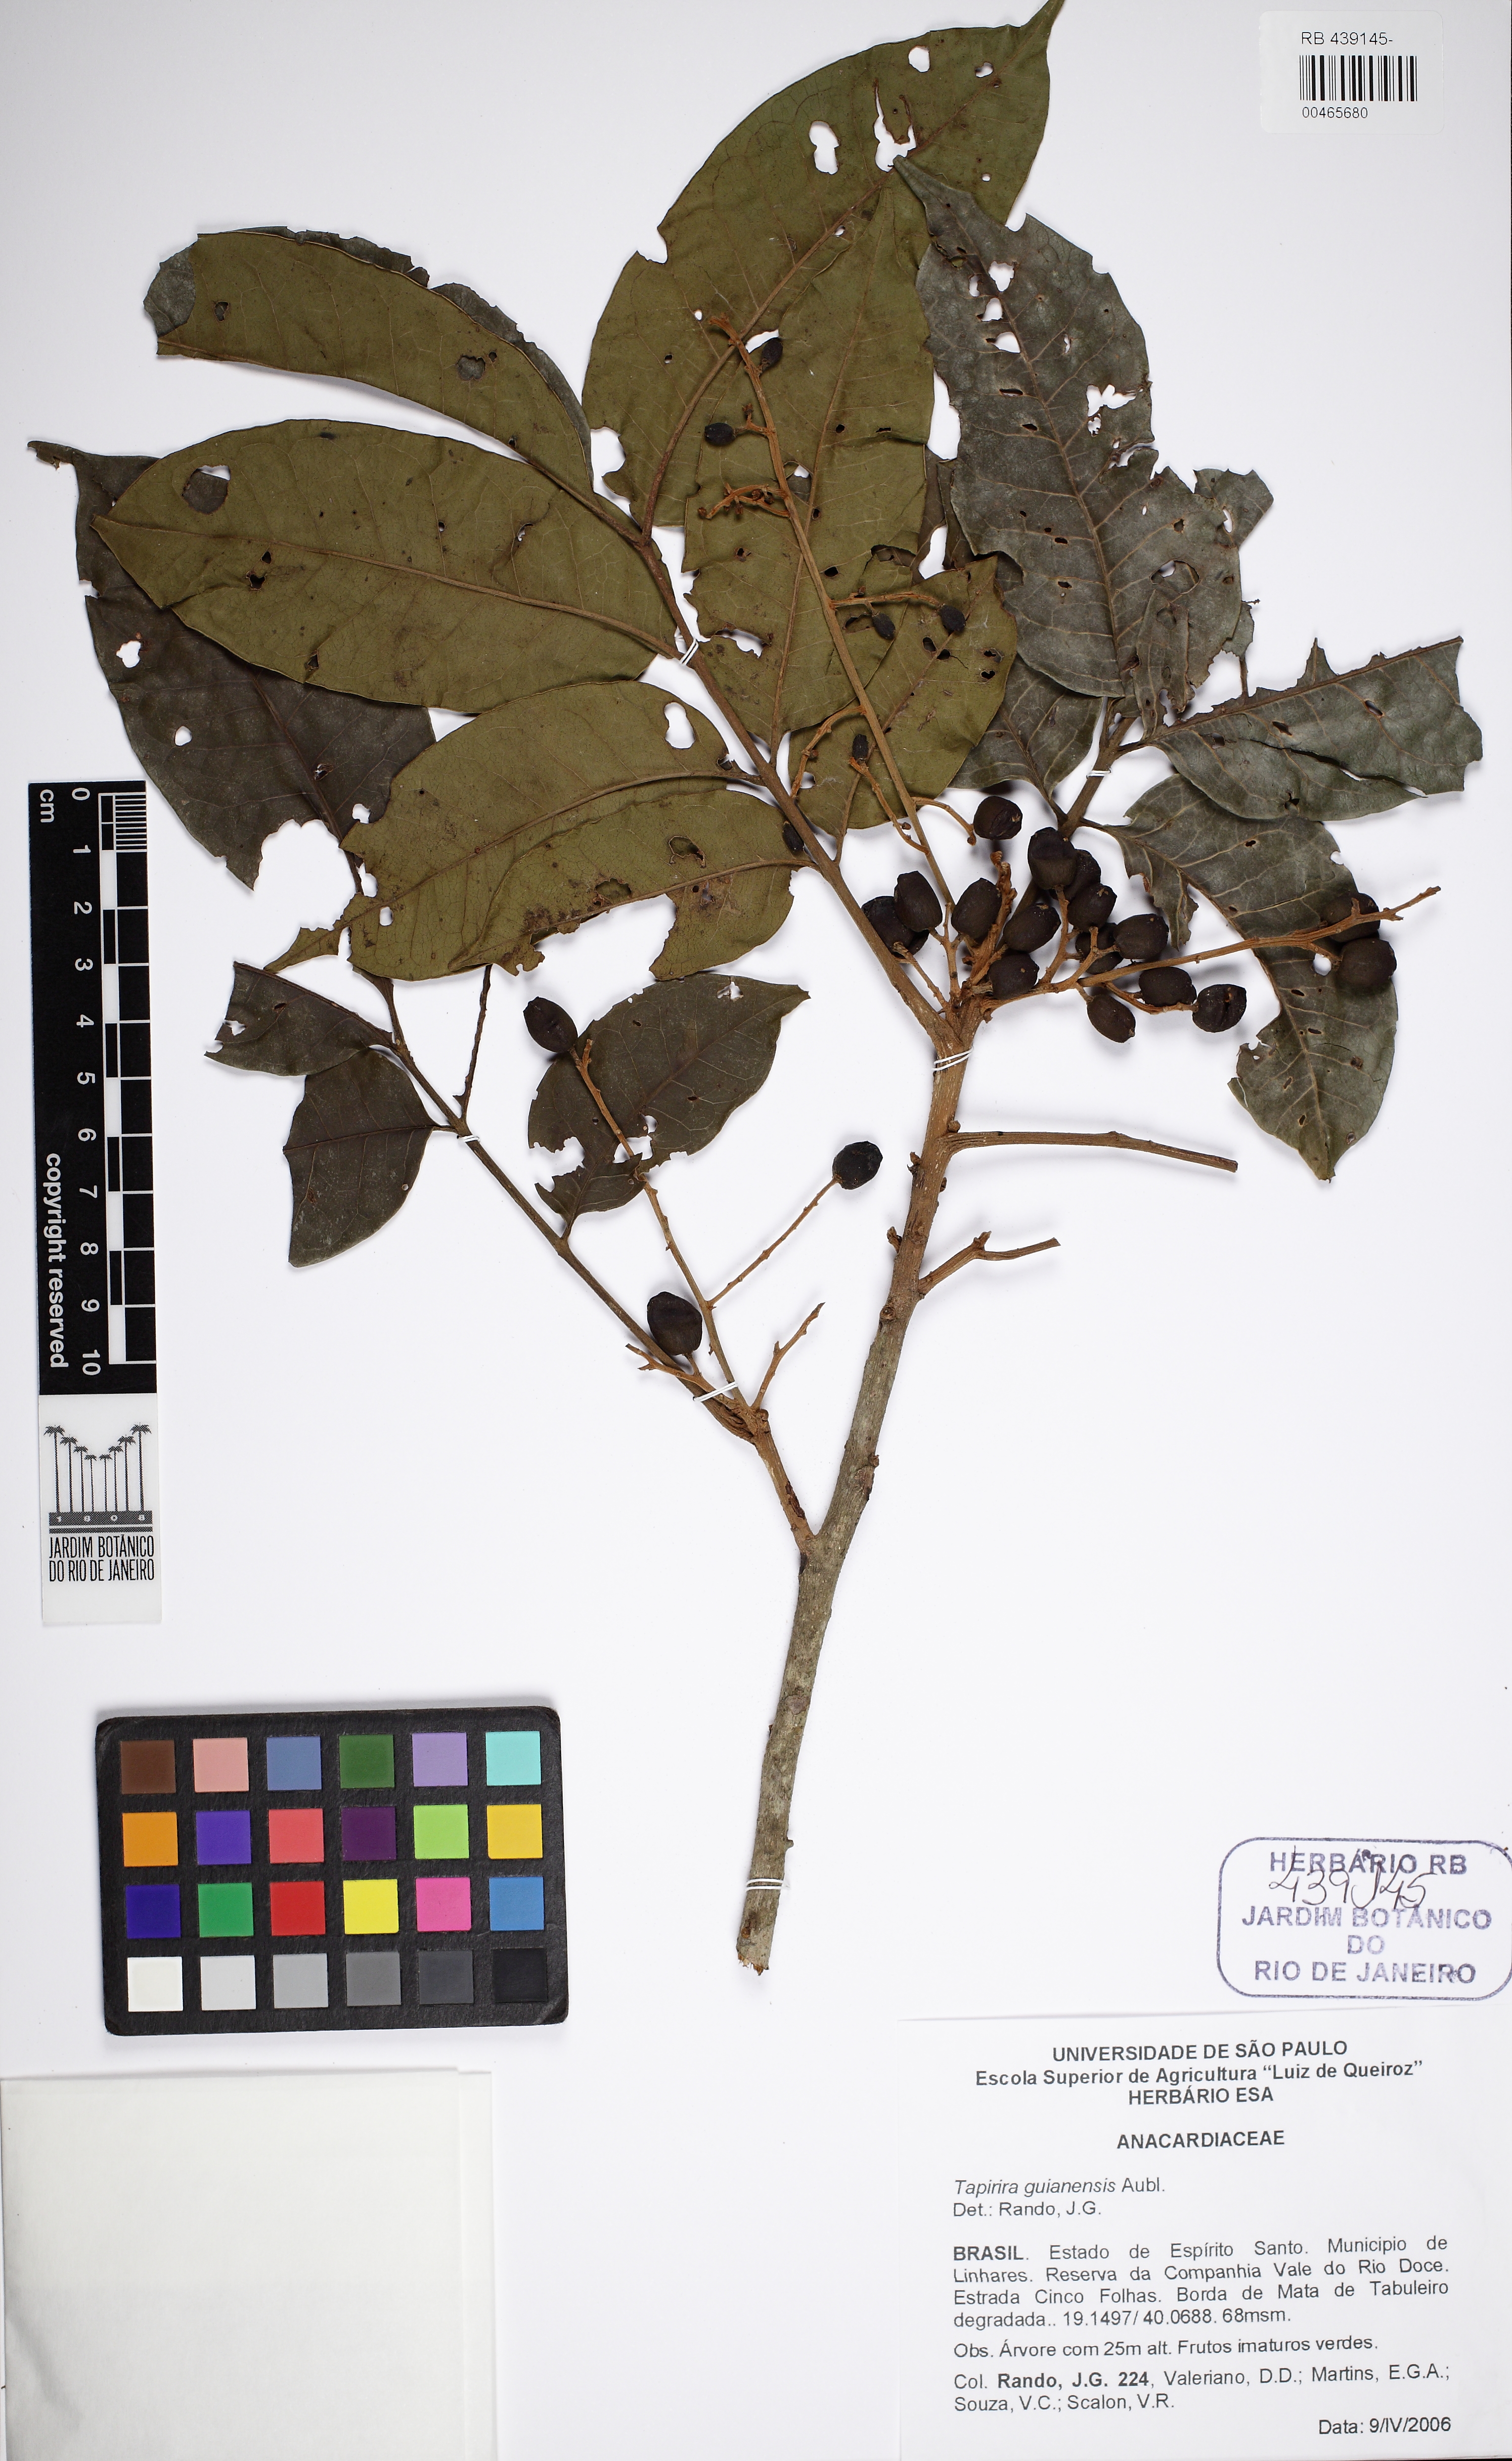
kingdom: Plantae
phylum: Tracheophyta
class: Magnoliopsida
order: Sapindales
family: Anacardiaceae
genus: Tapirira
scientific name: Tapirira guianensis
